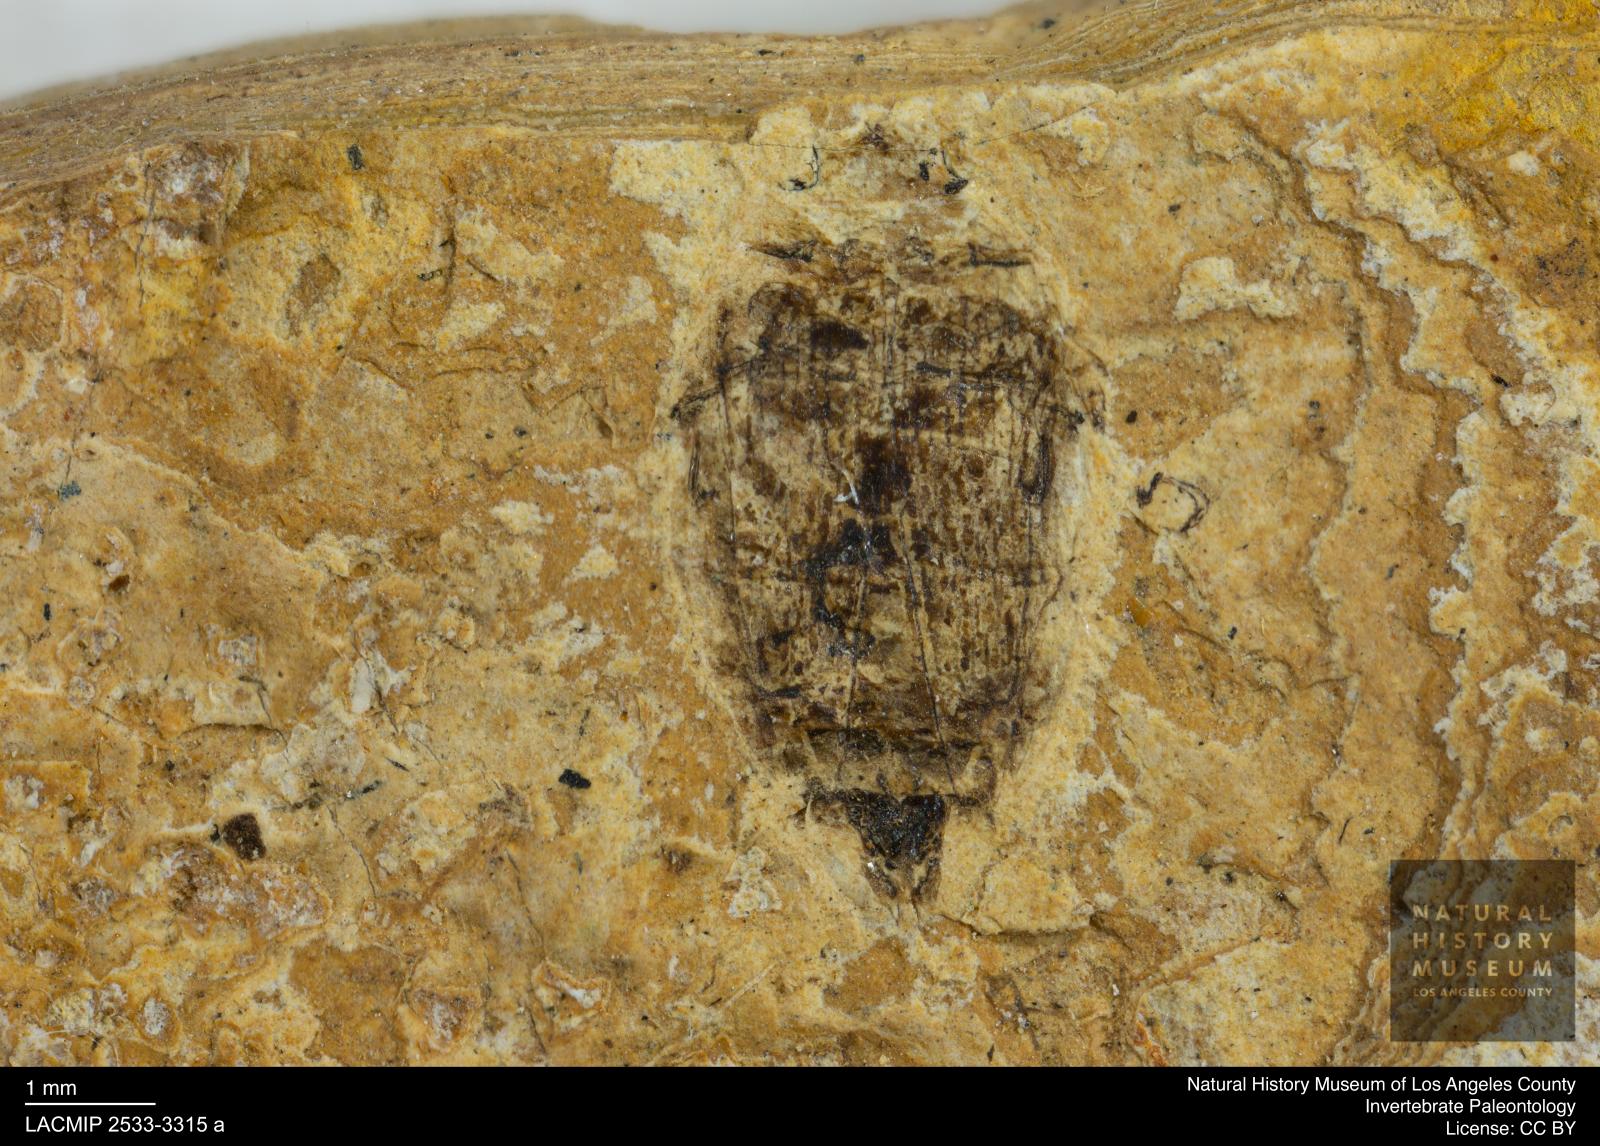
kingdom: Animalia
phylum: Arthropoda
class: Insecta
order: Coleoptera
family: Dytiscidae
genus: Laccophilus
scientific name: Laccophilus Palaeogyrinus strigatus
